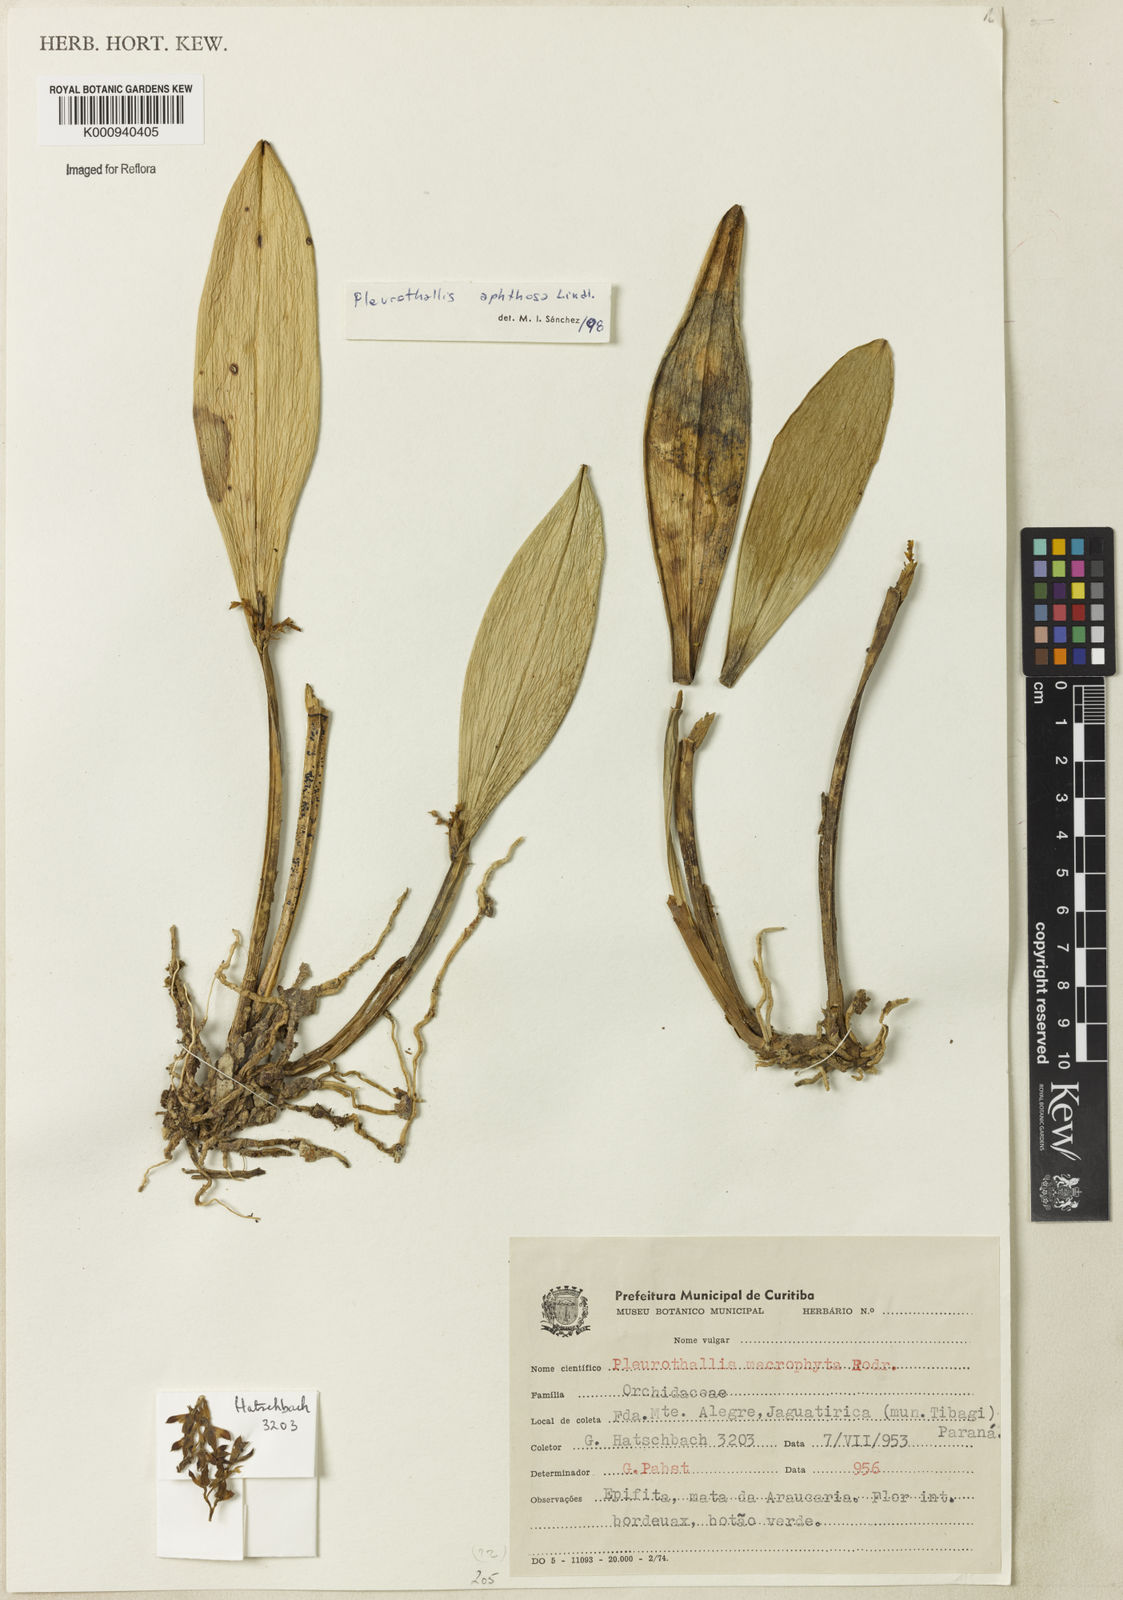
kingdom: Plantae
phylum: Tracheophyta
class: Liliopsida
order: Asparagales
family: Orchidaceae
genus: Acianthera
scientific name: Acianthera aphthosa
